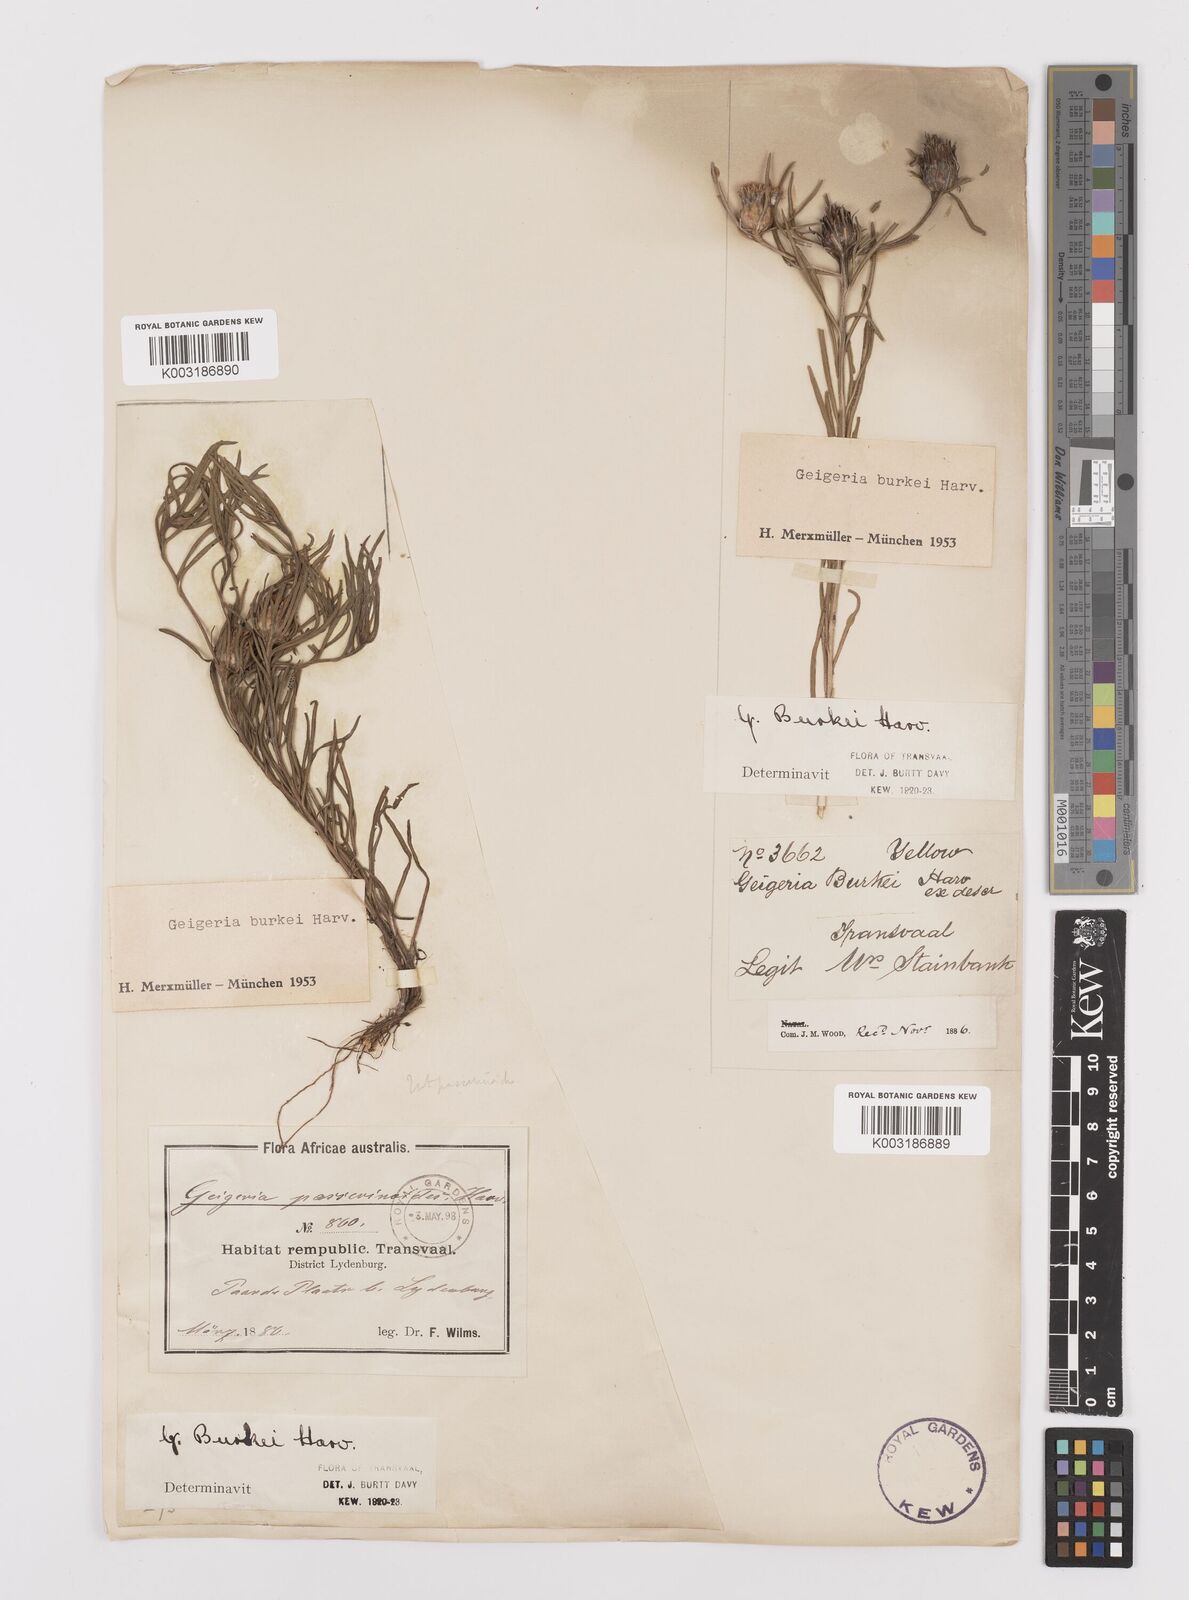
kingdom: Plantae
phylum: Tracheophyta
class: Magnoliopsida
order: Asterales
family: Asteraceae
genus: Geigeria
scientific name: Geigeria burkei
